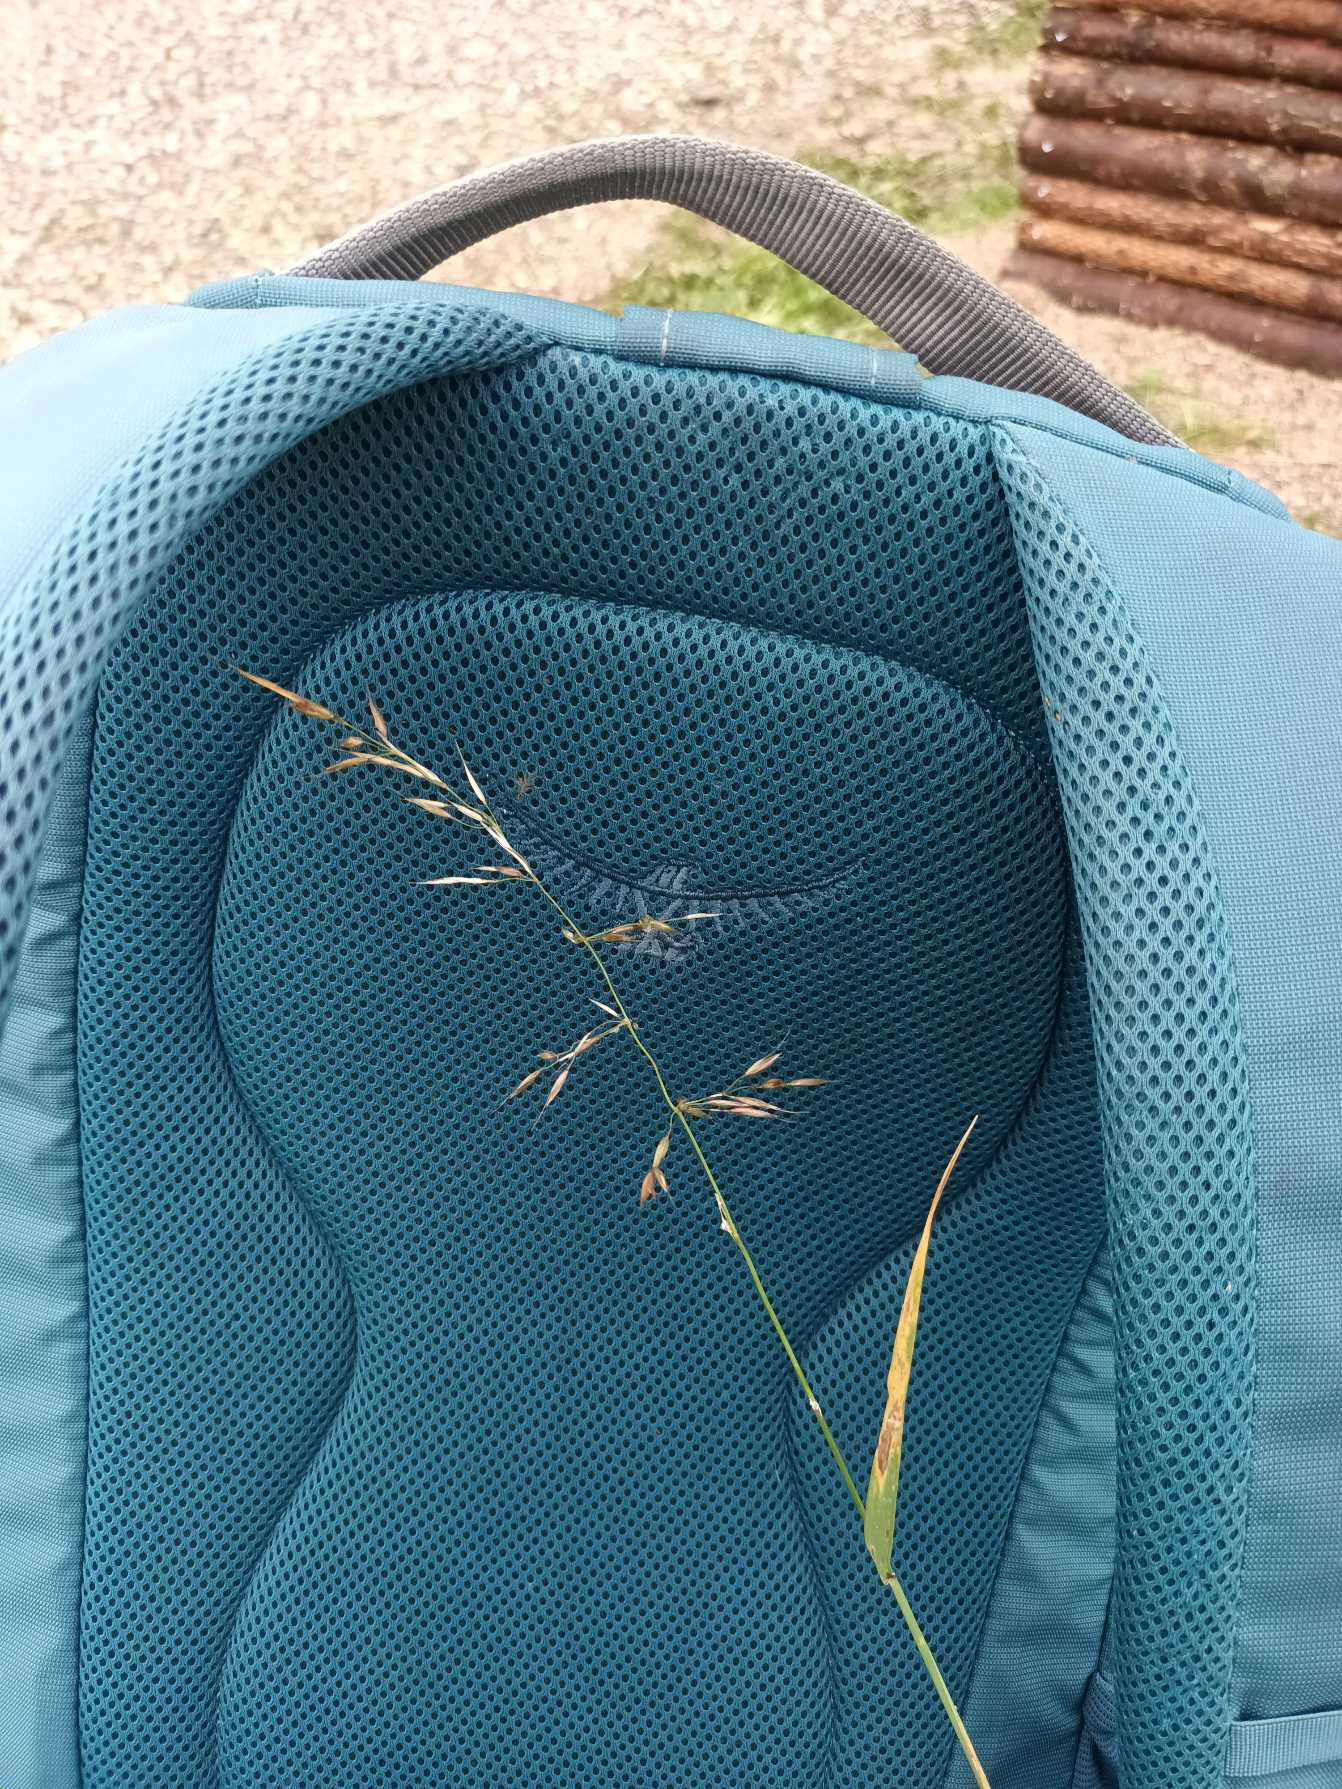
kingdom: Plantae
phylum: Tracheophyta
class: Liliopsida
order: Poales
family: Poaceae
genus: Arrhenatherum
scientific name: Arrhenatherum elatius
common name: Draphavre
